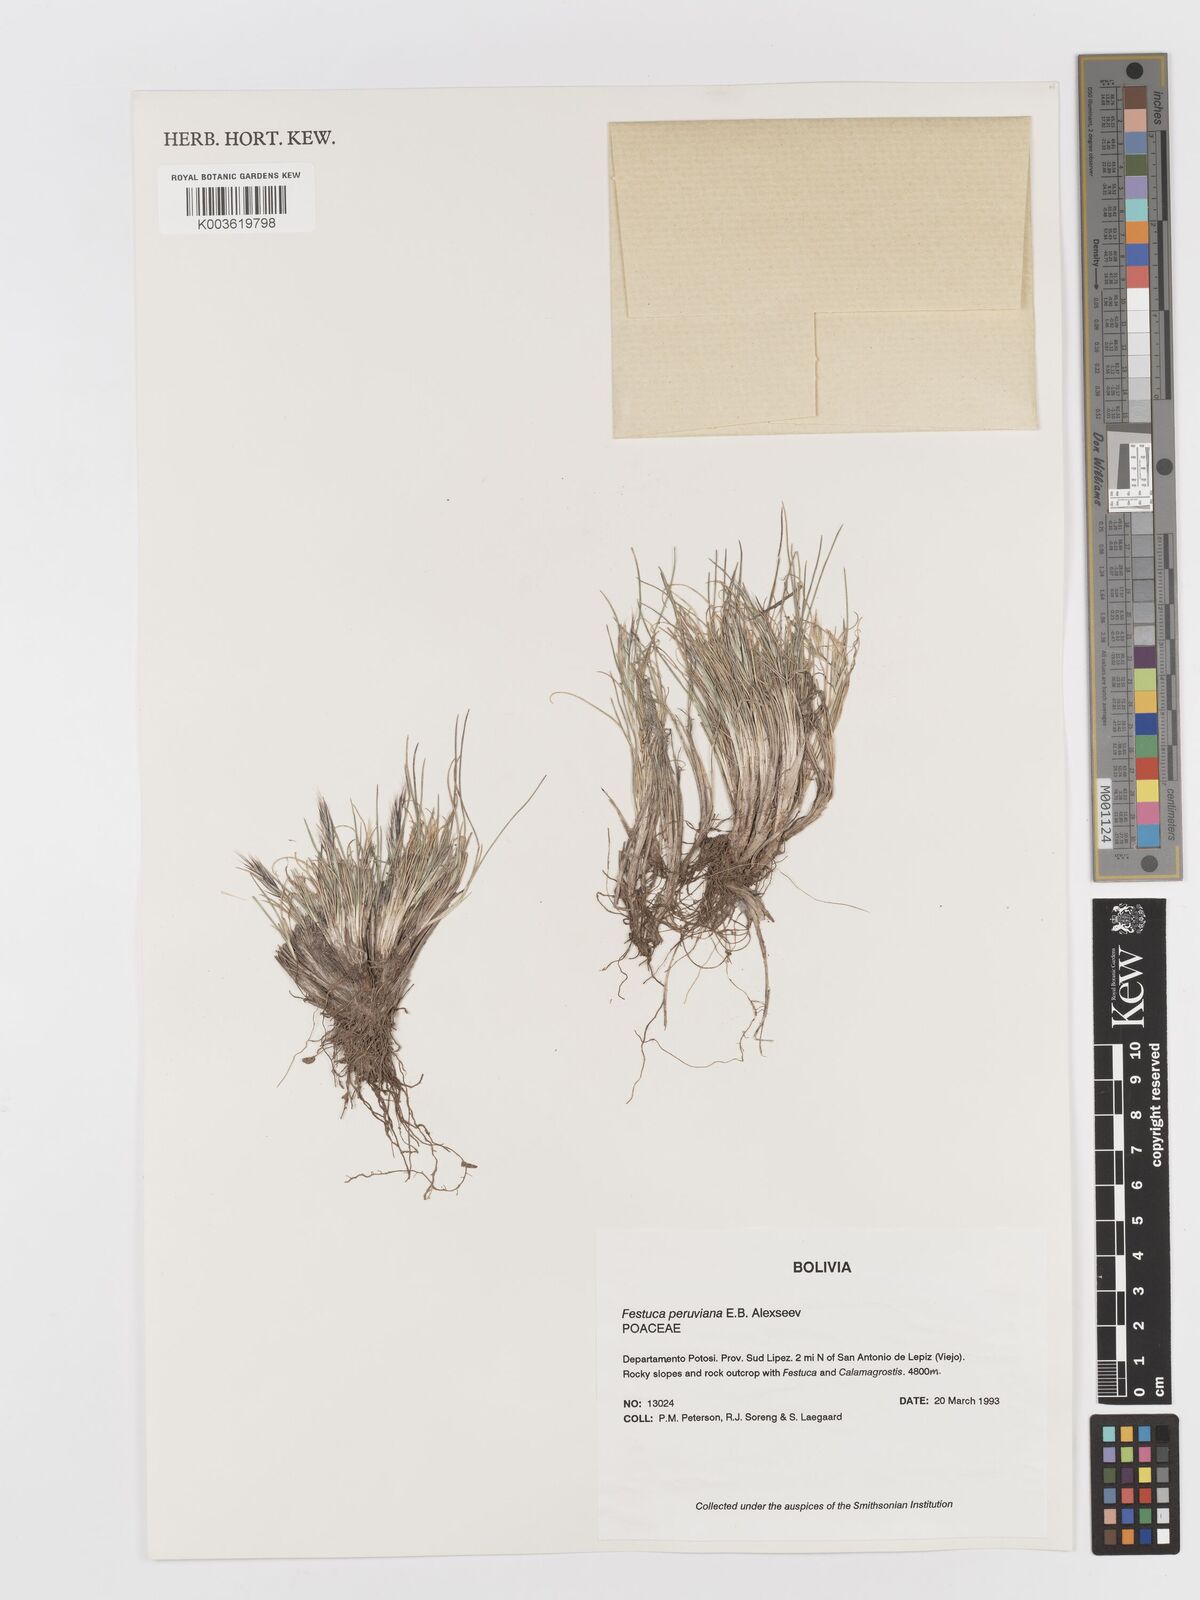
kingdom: Plantae
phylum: Tracheophyta
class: Liliopsida
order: Poales
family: Poaceae
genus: Festuca
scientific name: Festuca floribunda
